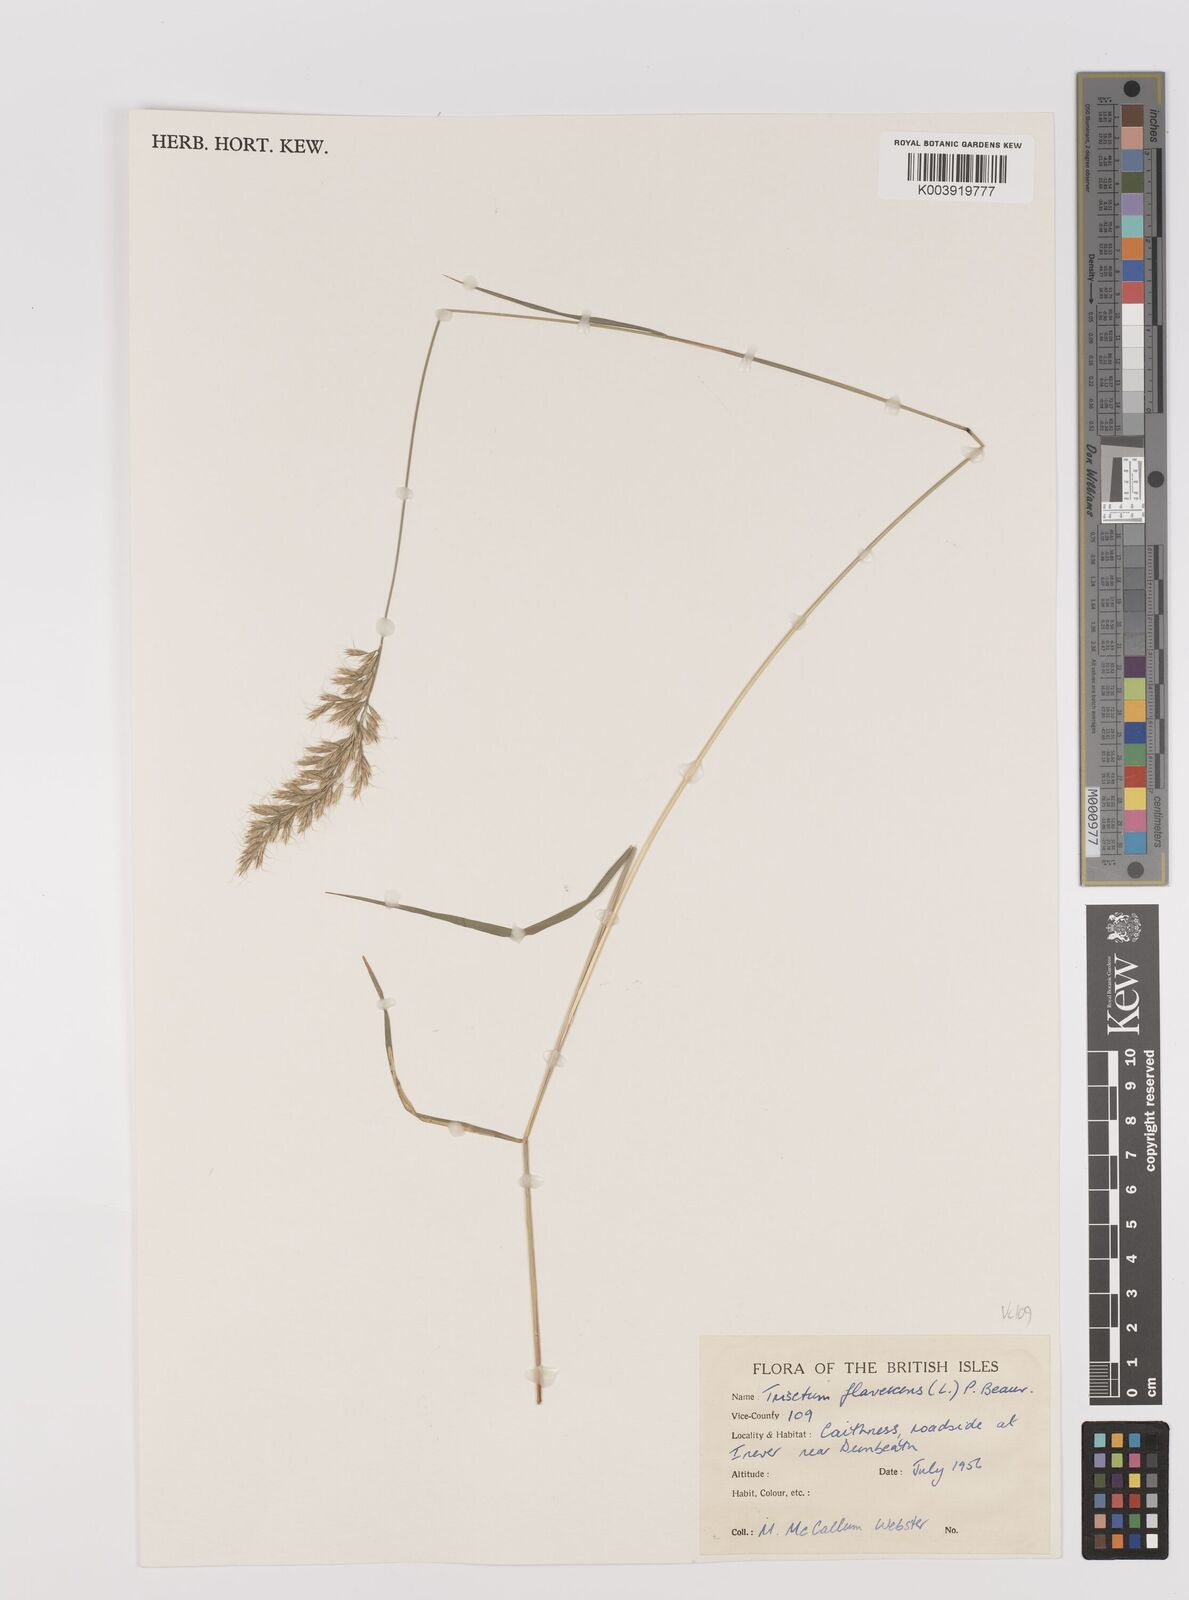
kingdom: Plantae
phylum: Tracheophyta
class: Liliopsida
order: Poales
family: Poaceae
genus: Trisetum
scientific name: Trisetum flavescens
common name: Yellow oat-grass
